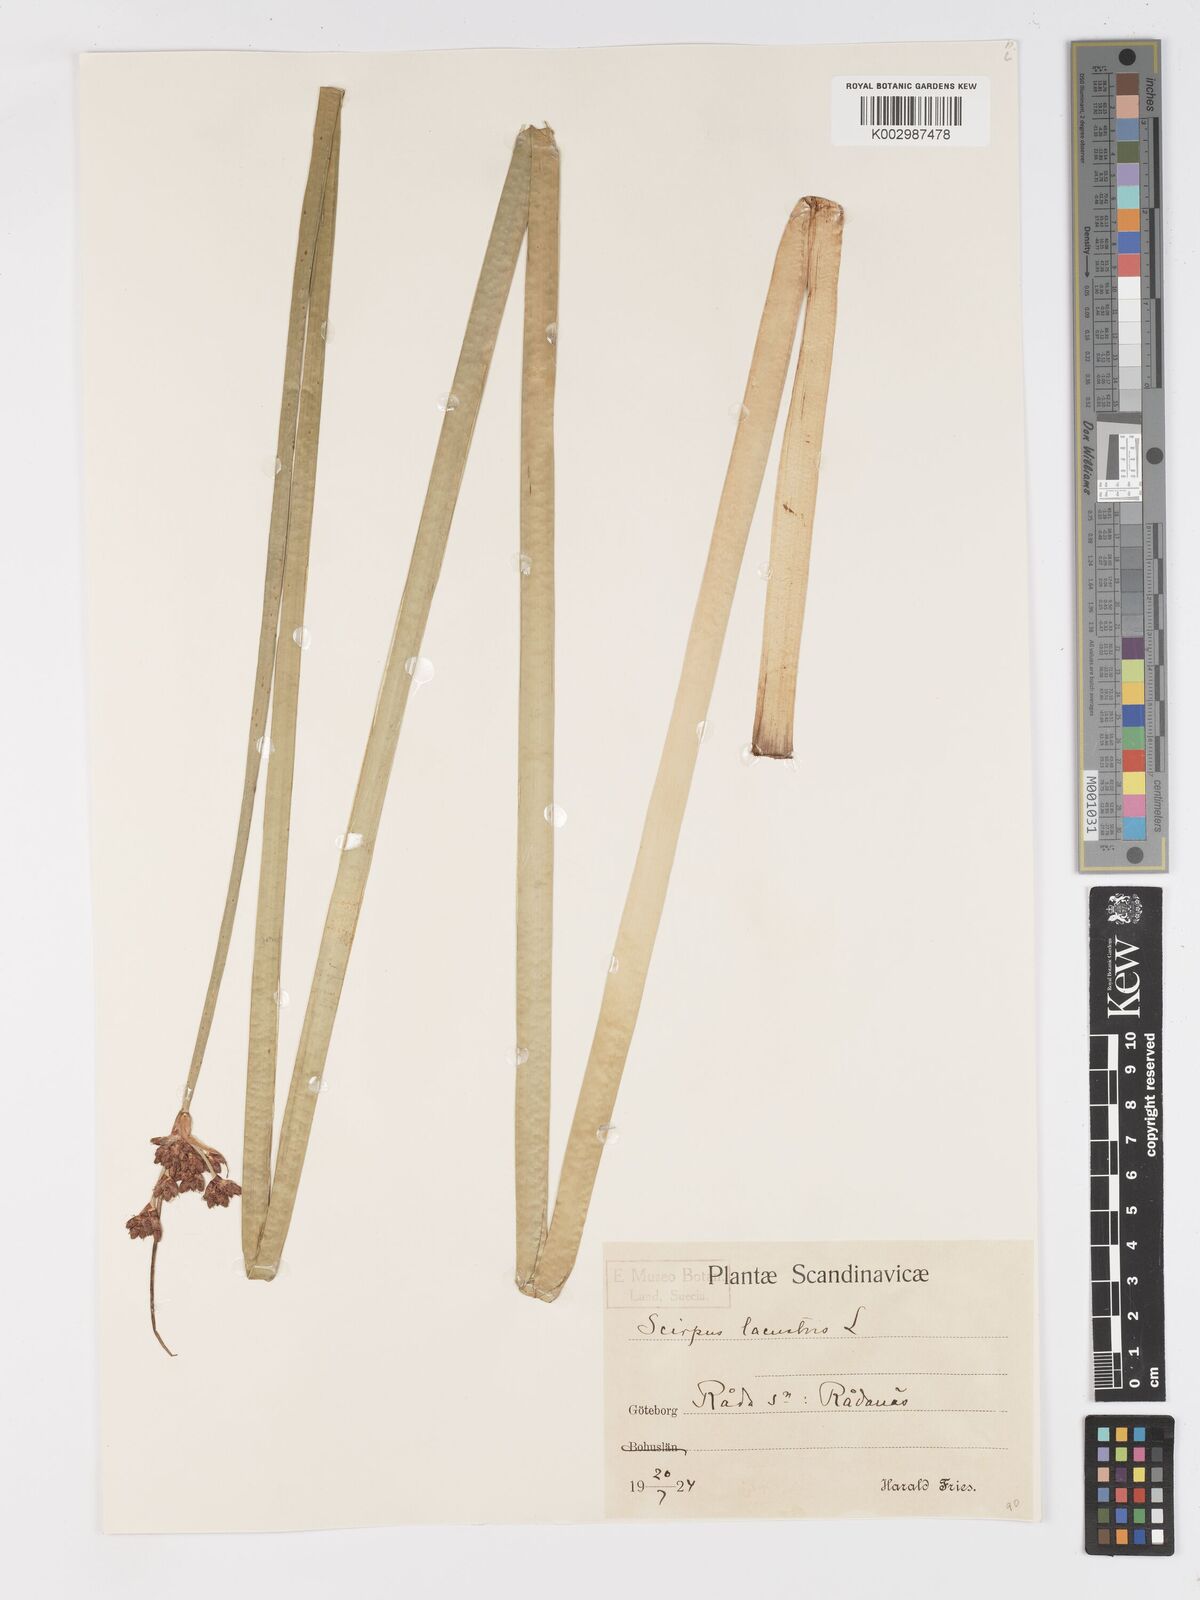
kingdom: Plantae
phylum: Tracheophyta
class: Liliopsida
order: Poales
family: Cyperaceae
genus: Schoenoplectus
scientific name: Schoenoplectus lacustris
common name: Common club-rush
